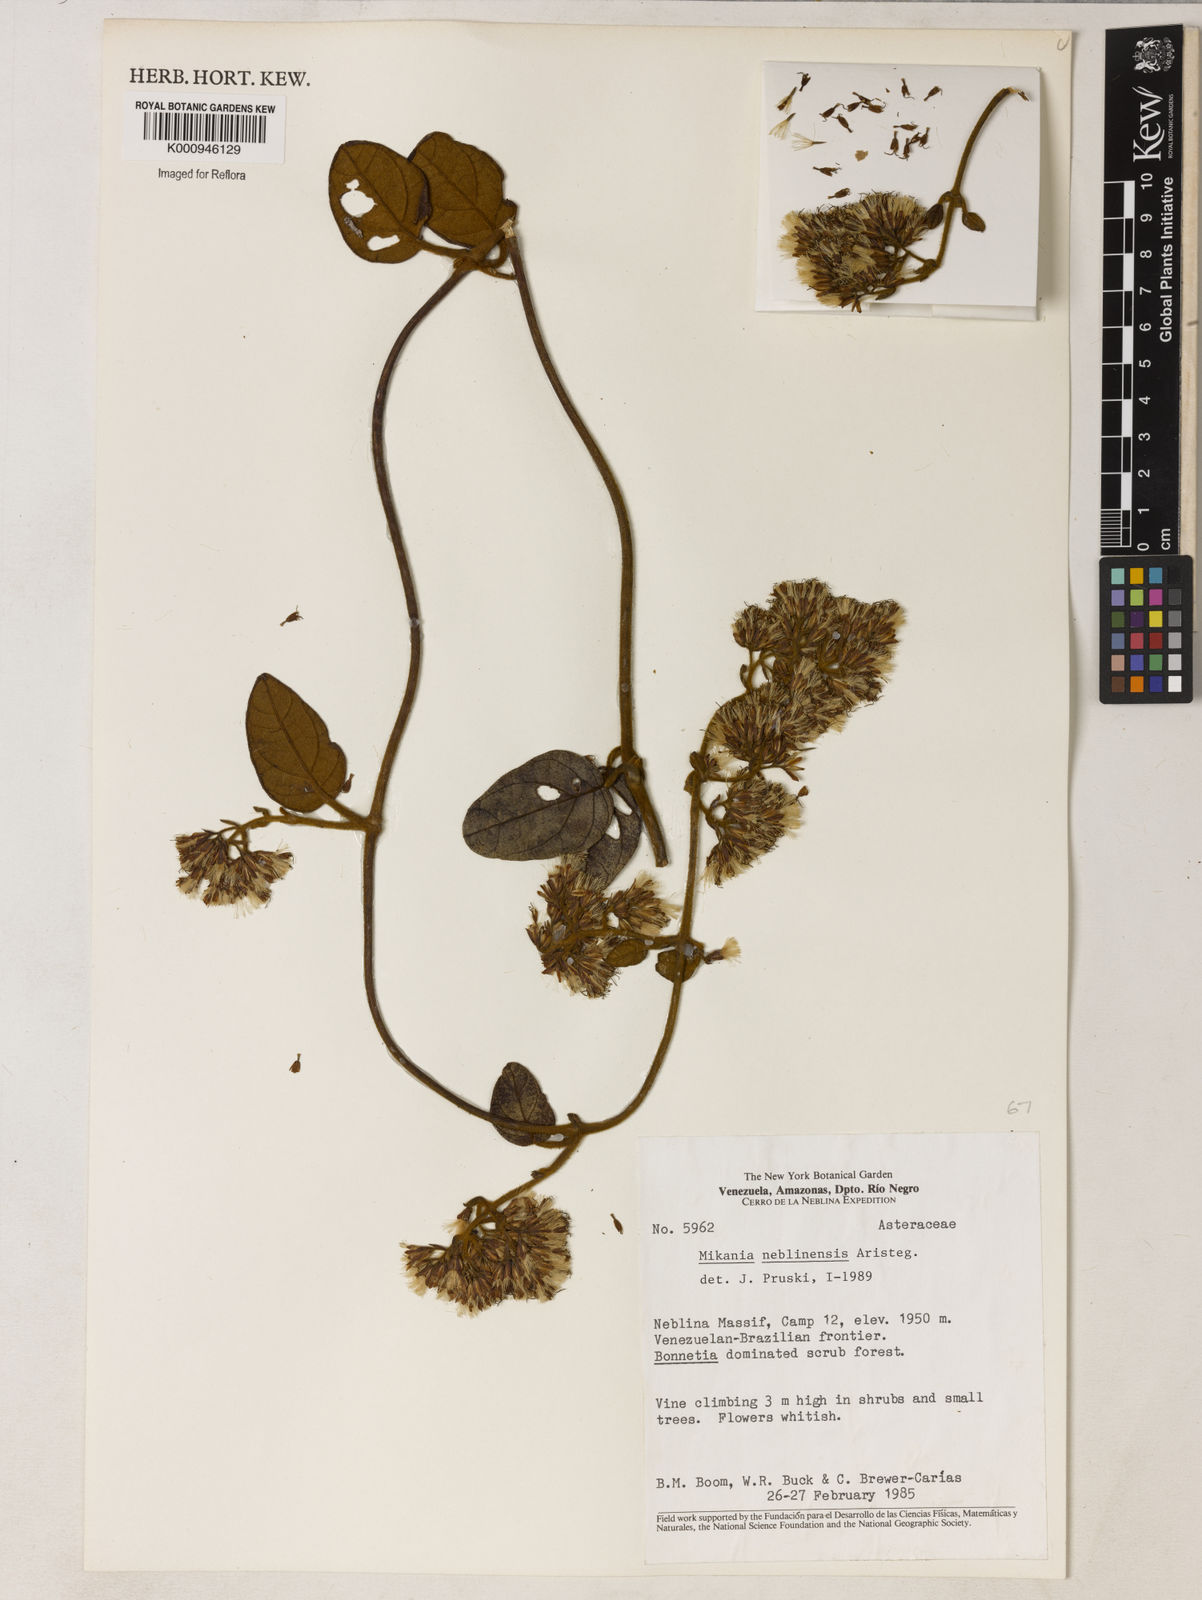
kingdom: Plantae
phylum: Tracheophyta
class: Magnoliopsida
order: Asterales
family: Asteraceae
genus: Mikania
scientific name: Mikania neblinensis
